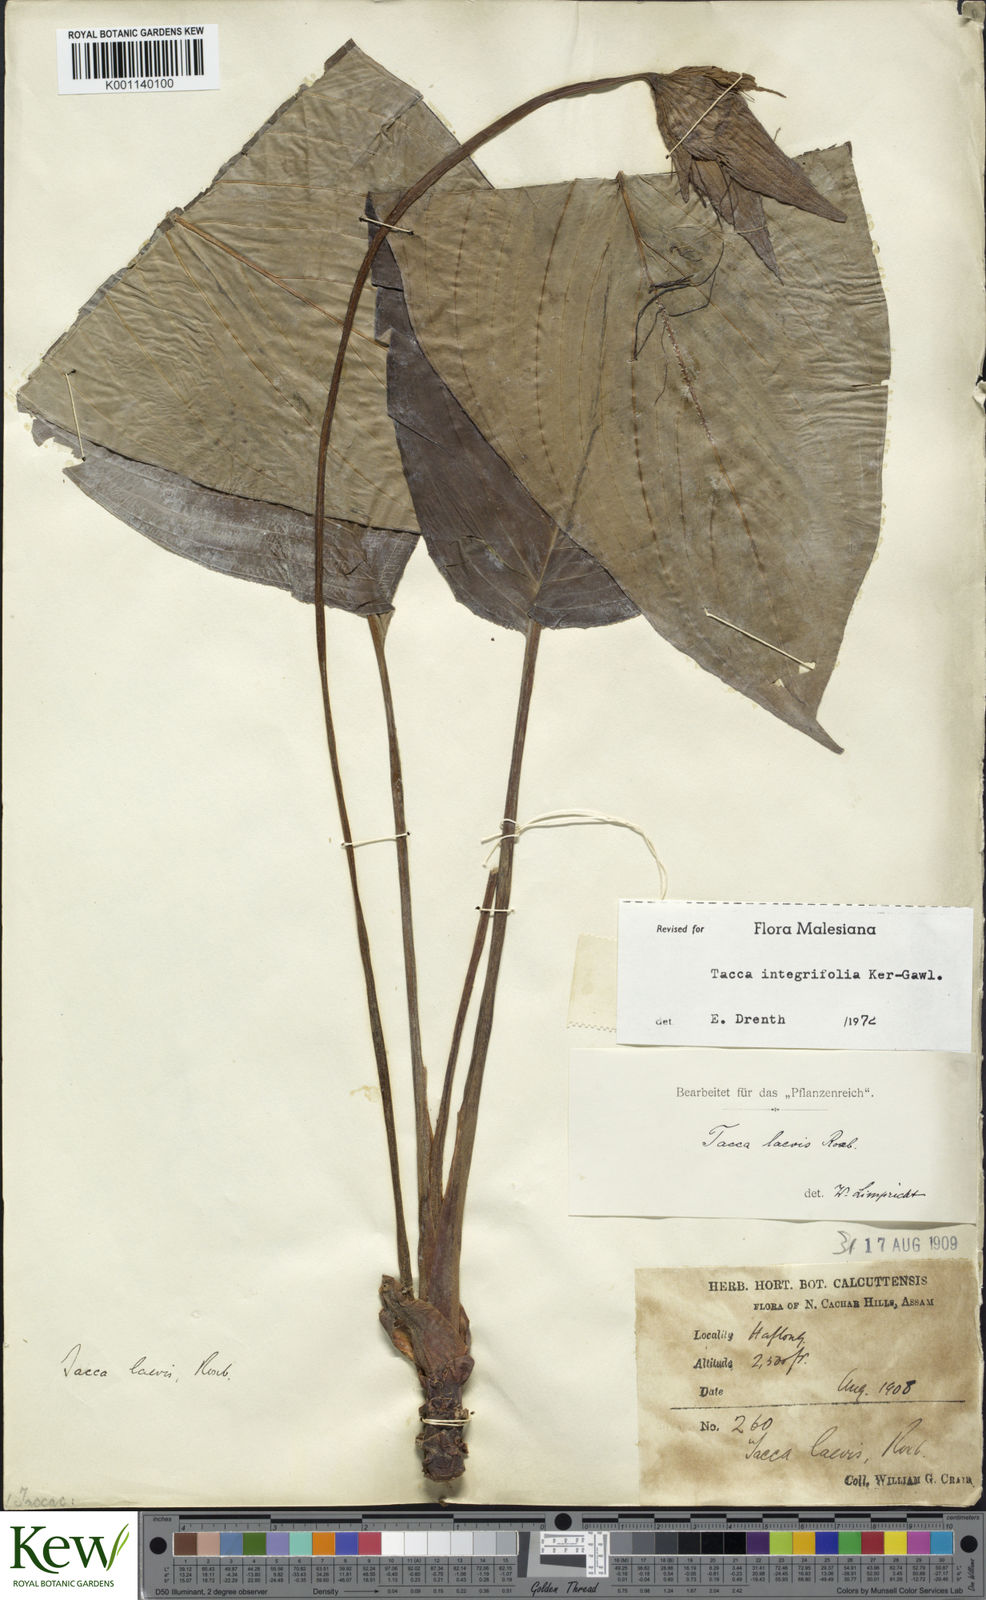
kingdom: Plantae
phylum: Tracheophyta
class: Liliopsida
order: Dioscoreales
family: Dioscoreaceae
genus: Tacca
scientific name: Tacca
